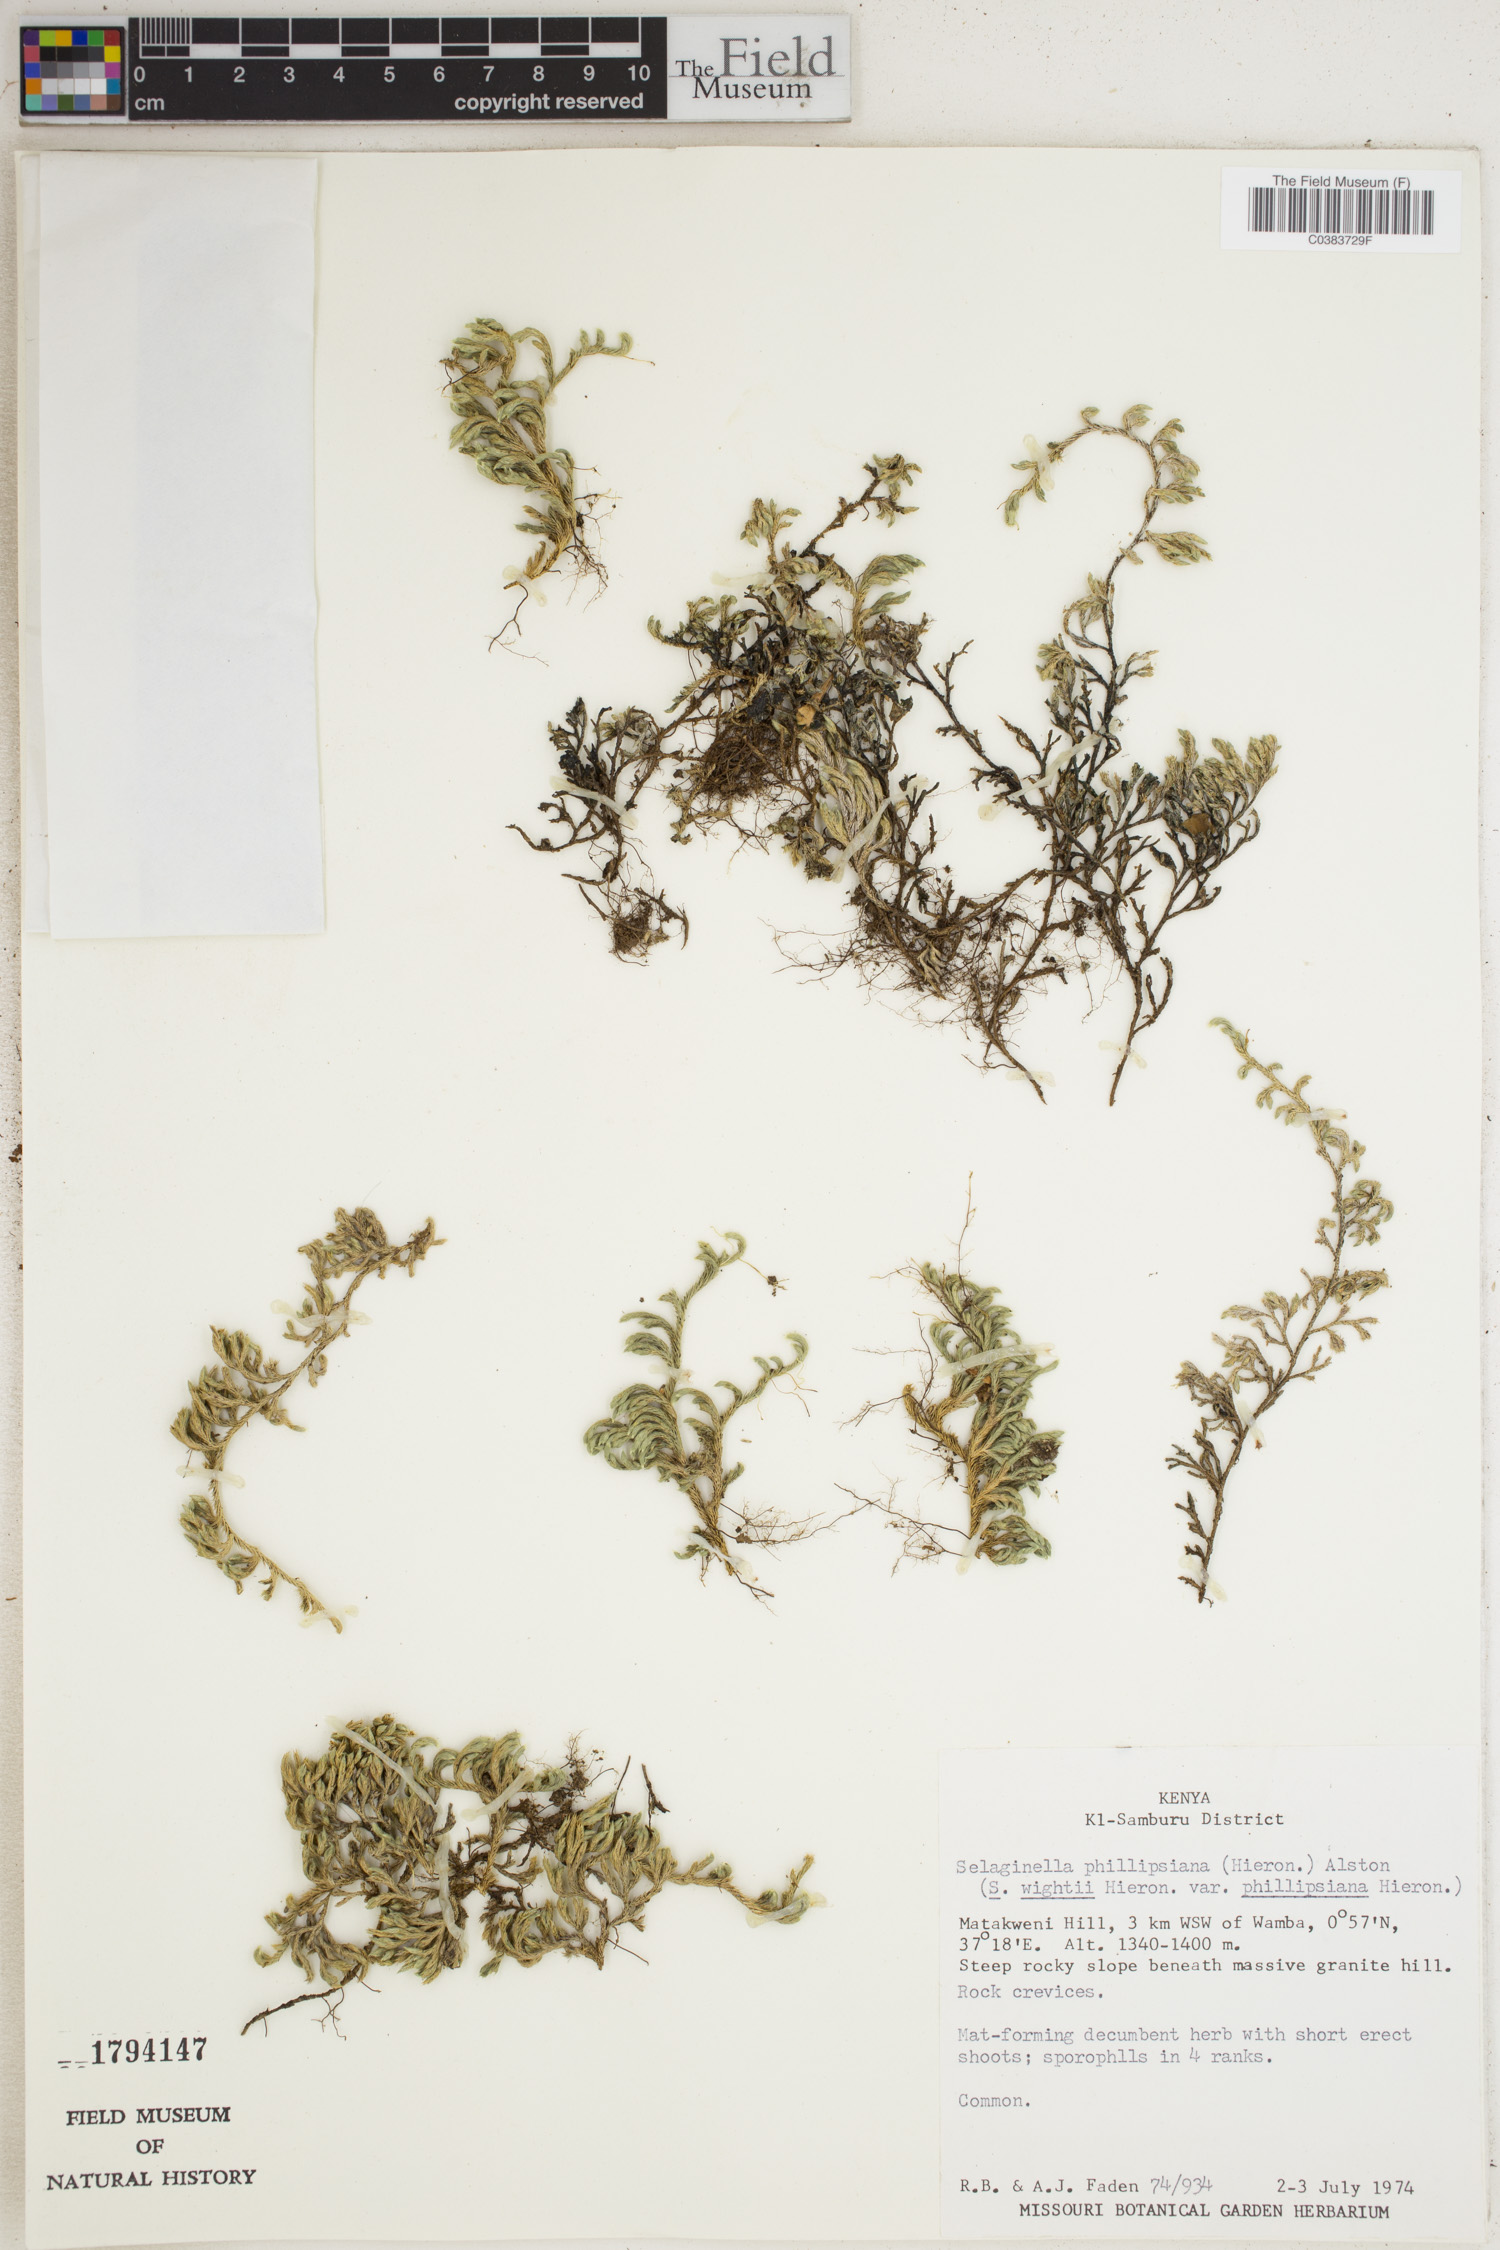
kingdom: Plantae
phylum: Tracheophyta
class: Lycopodiopsida
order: Selaginellales
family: Selaginellaceae
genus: Selaginella
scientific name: Selaginella phillipsina
